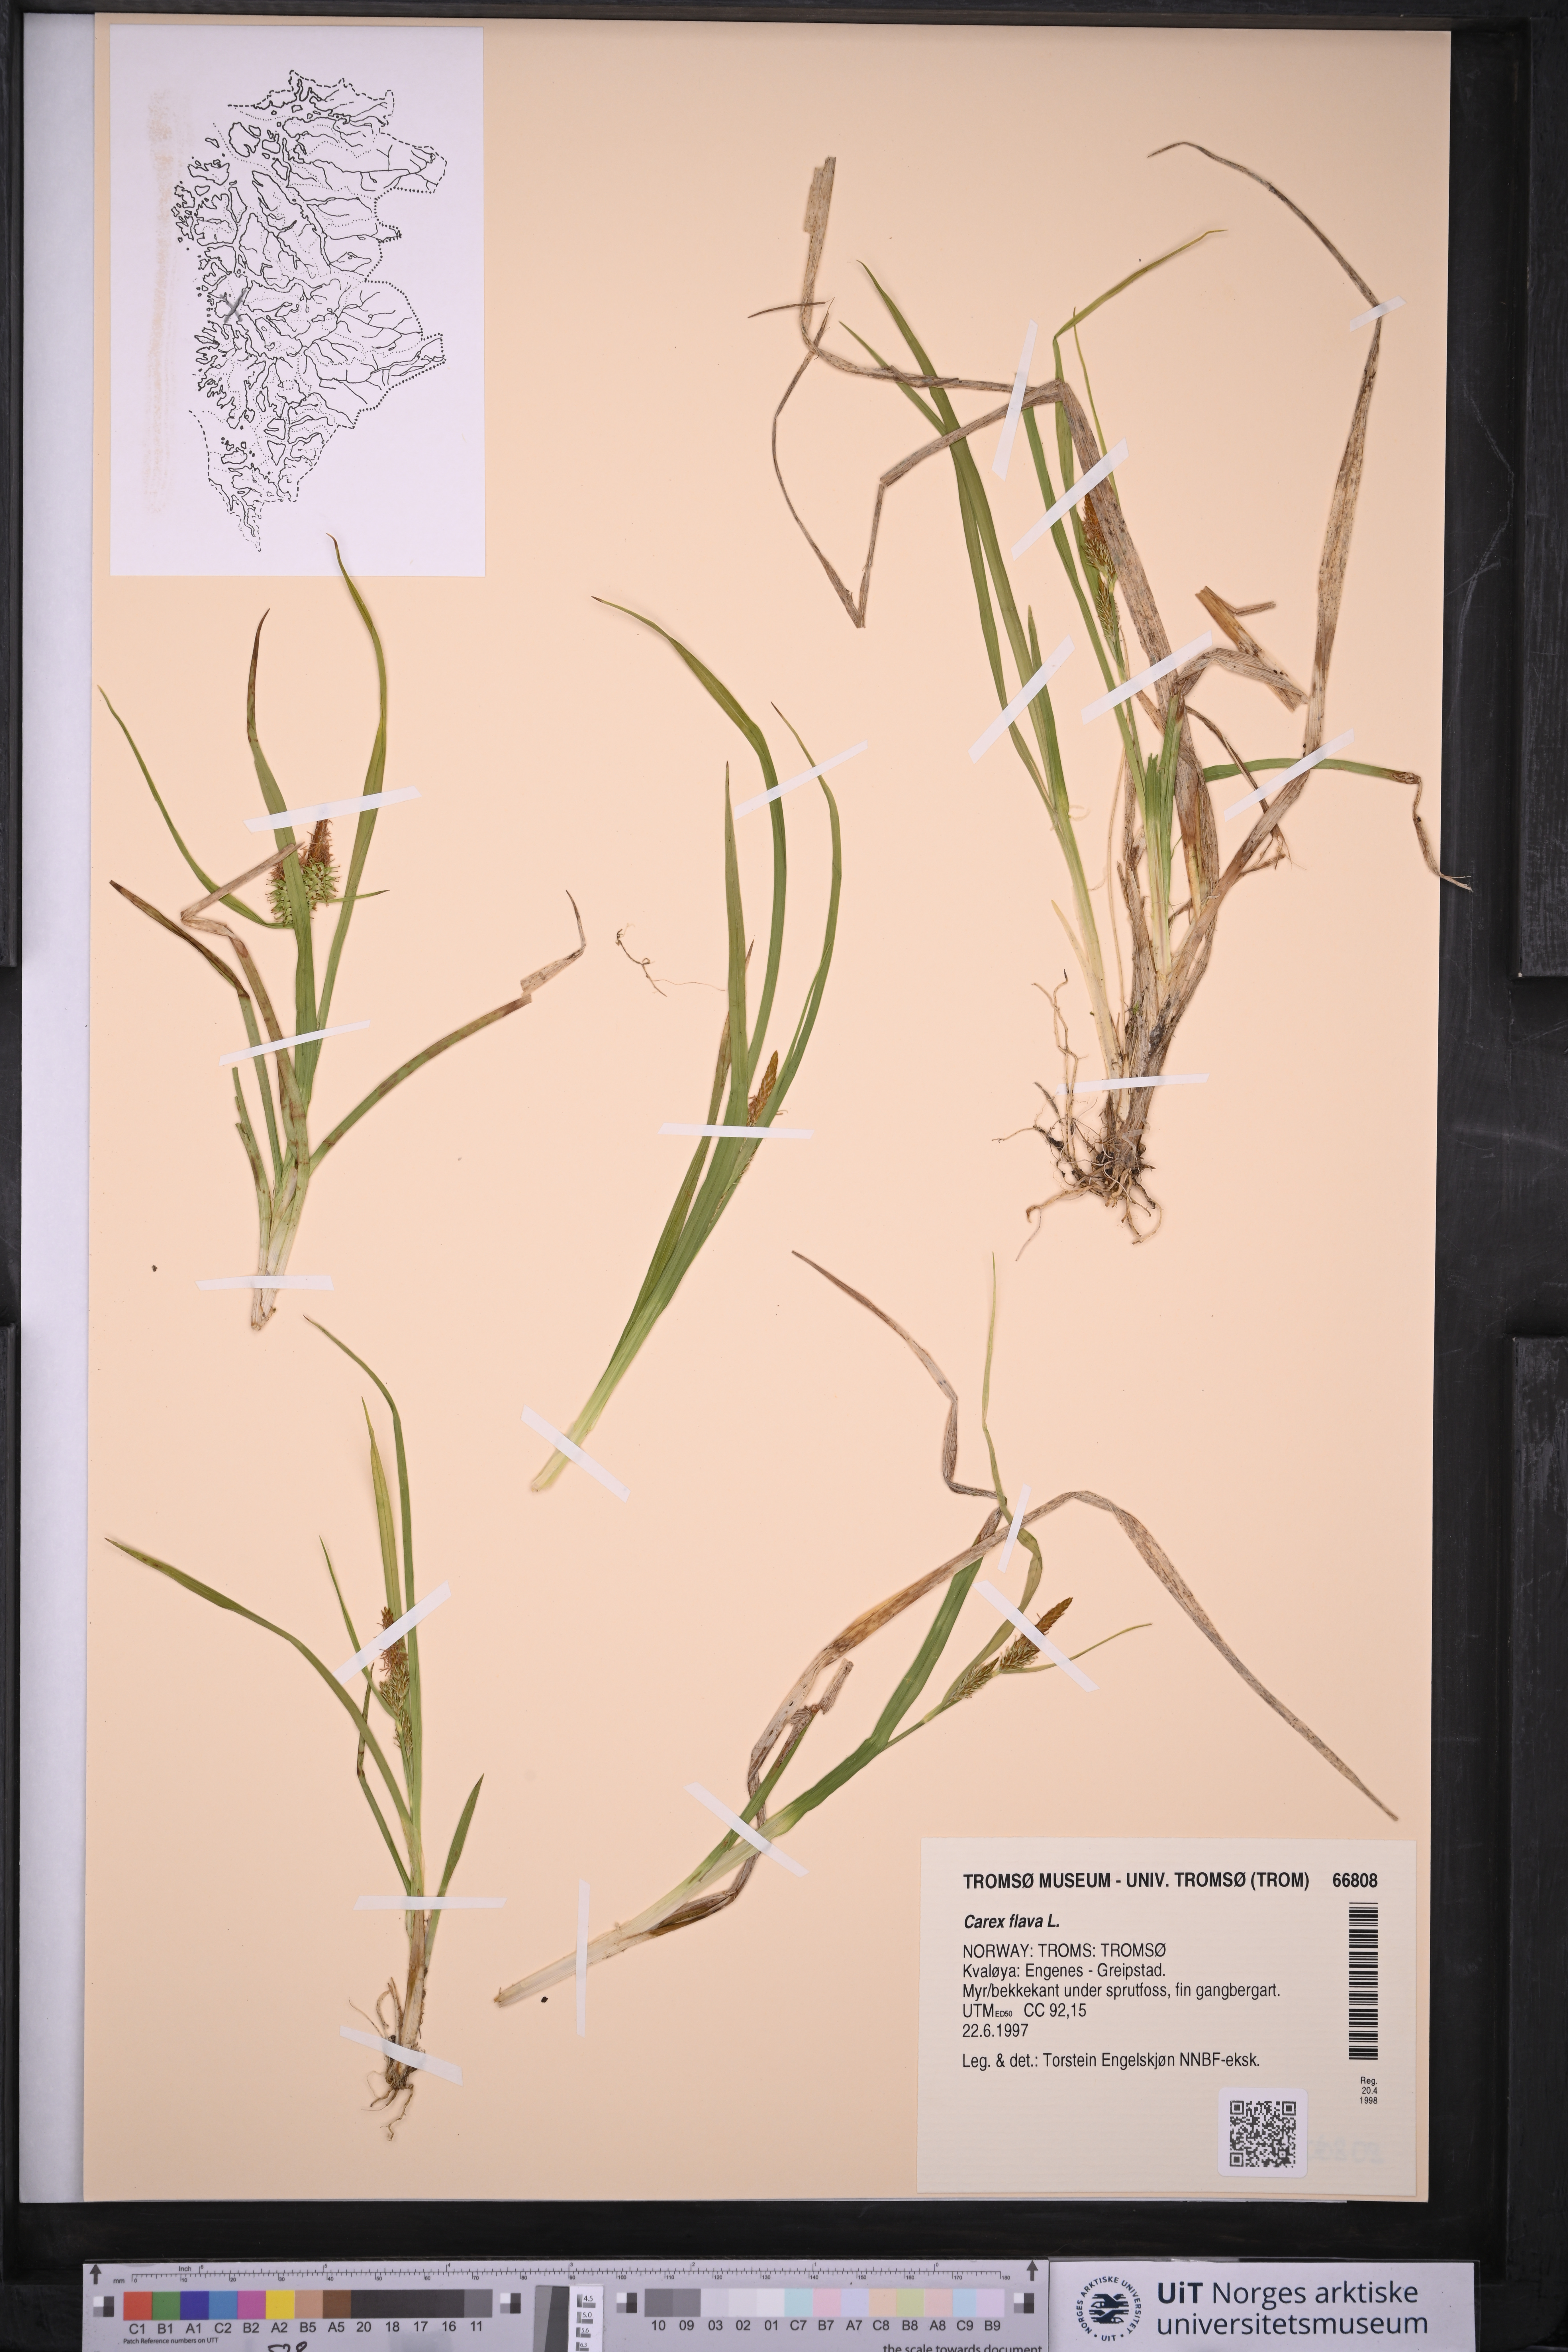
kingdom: Plantae
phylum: Tracheophyta
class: Liliopsida
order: Poales
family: Cyperaceae
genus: Carex
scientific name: Carex flava
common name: Large yellow-sedge
